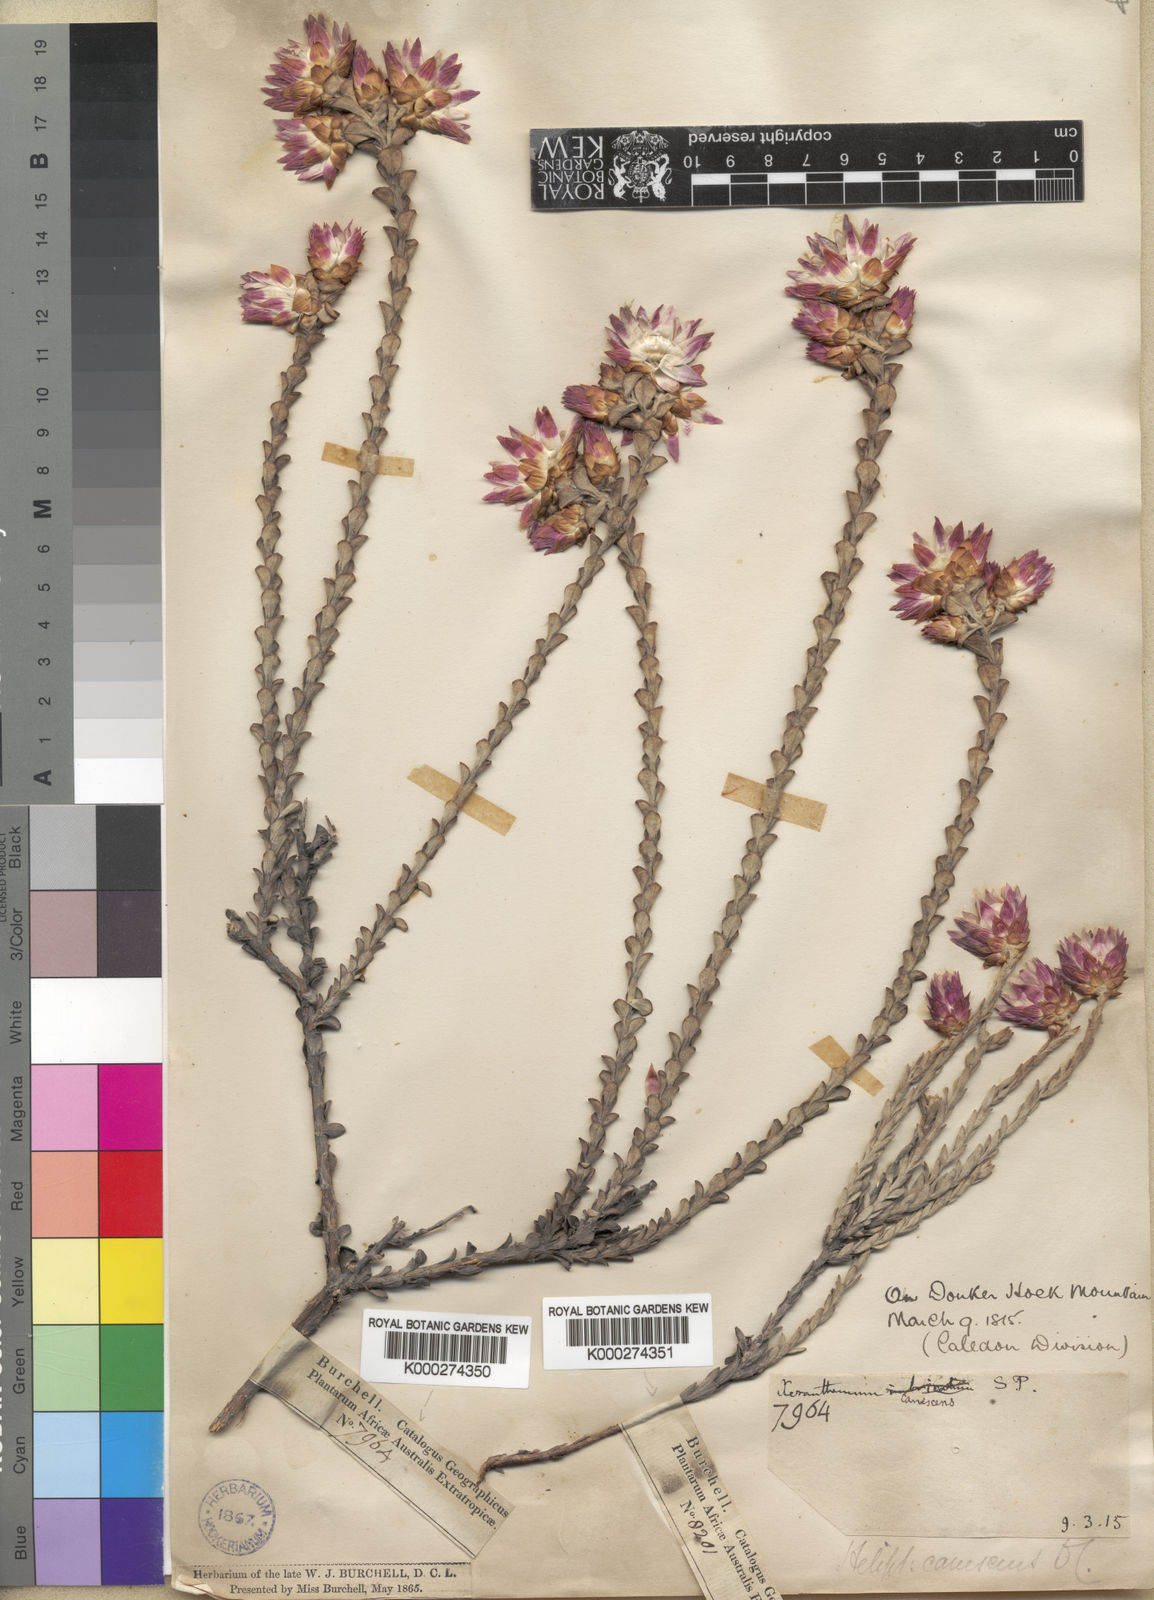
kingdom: Plantae
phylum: Tracheophyta
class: Magnoliopsida
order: Asterales
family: Asteraceae
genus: Syncarpha
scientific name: Syncarpha canescens
